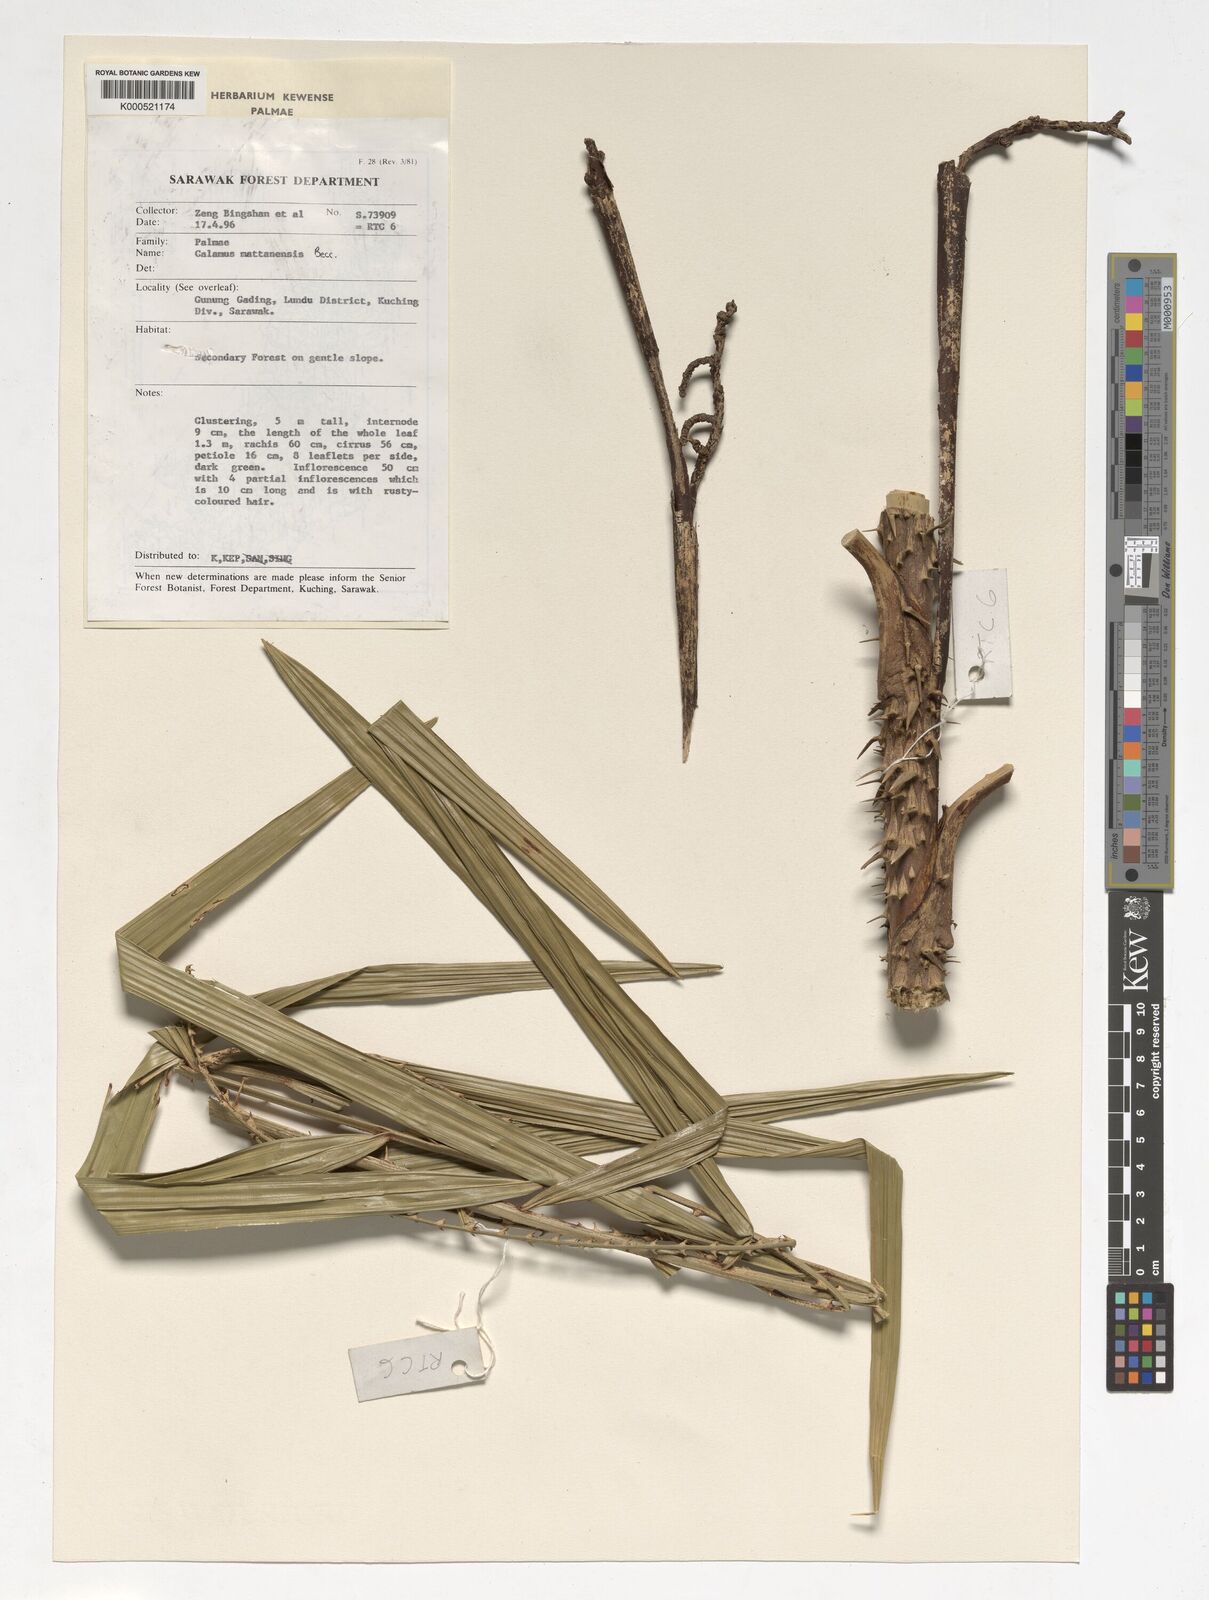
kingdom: Plantae
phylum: Tracheophyta
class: Liliopsida
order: Arecales
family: Arecaceae
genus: Calamus
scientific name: Calamus
